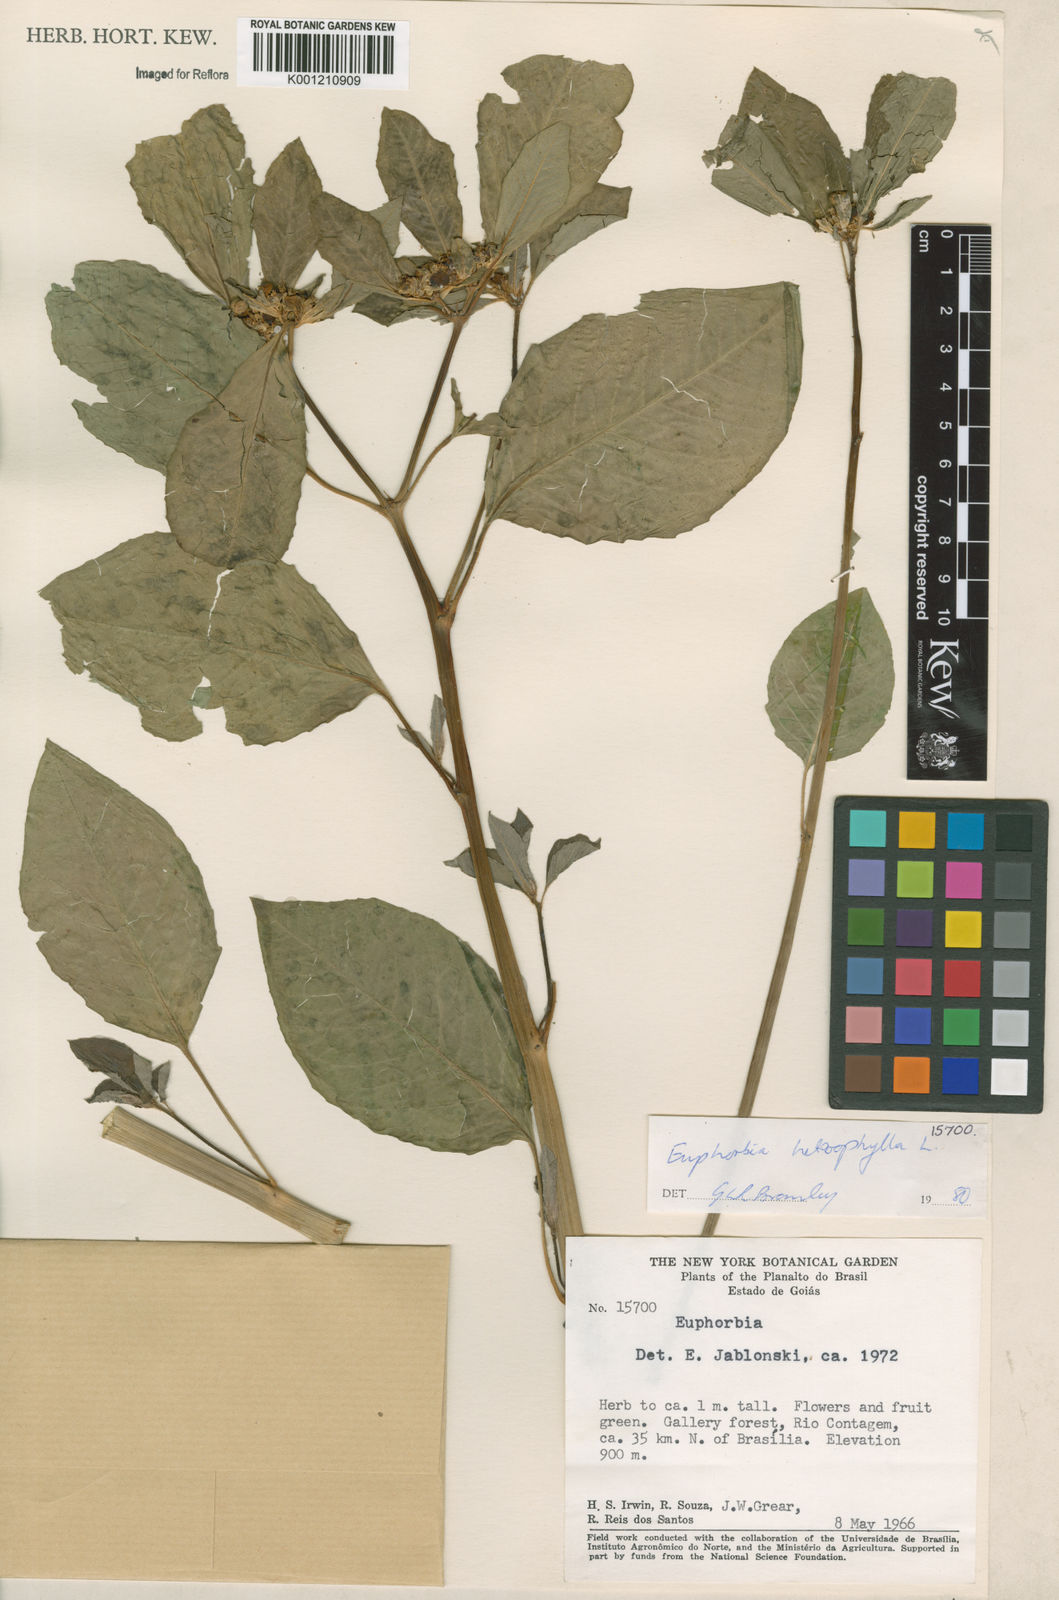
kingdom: Plantae
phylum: Tracheophyta
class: Magnoliopsida
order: Malpighiales
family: Euphorbiaceae
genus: Euphorbia
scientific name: Euphorbia heterophylla
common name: Mexican fireplant
